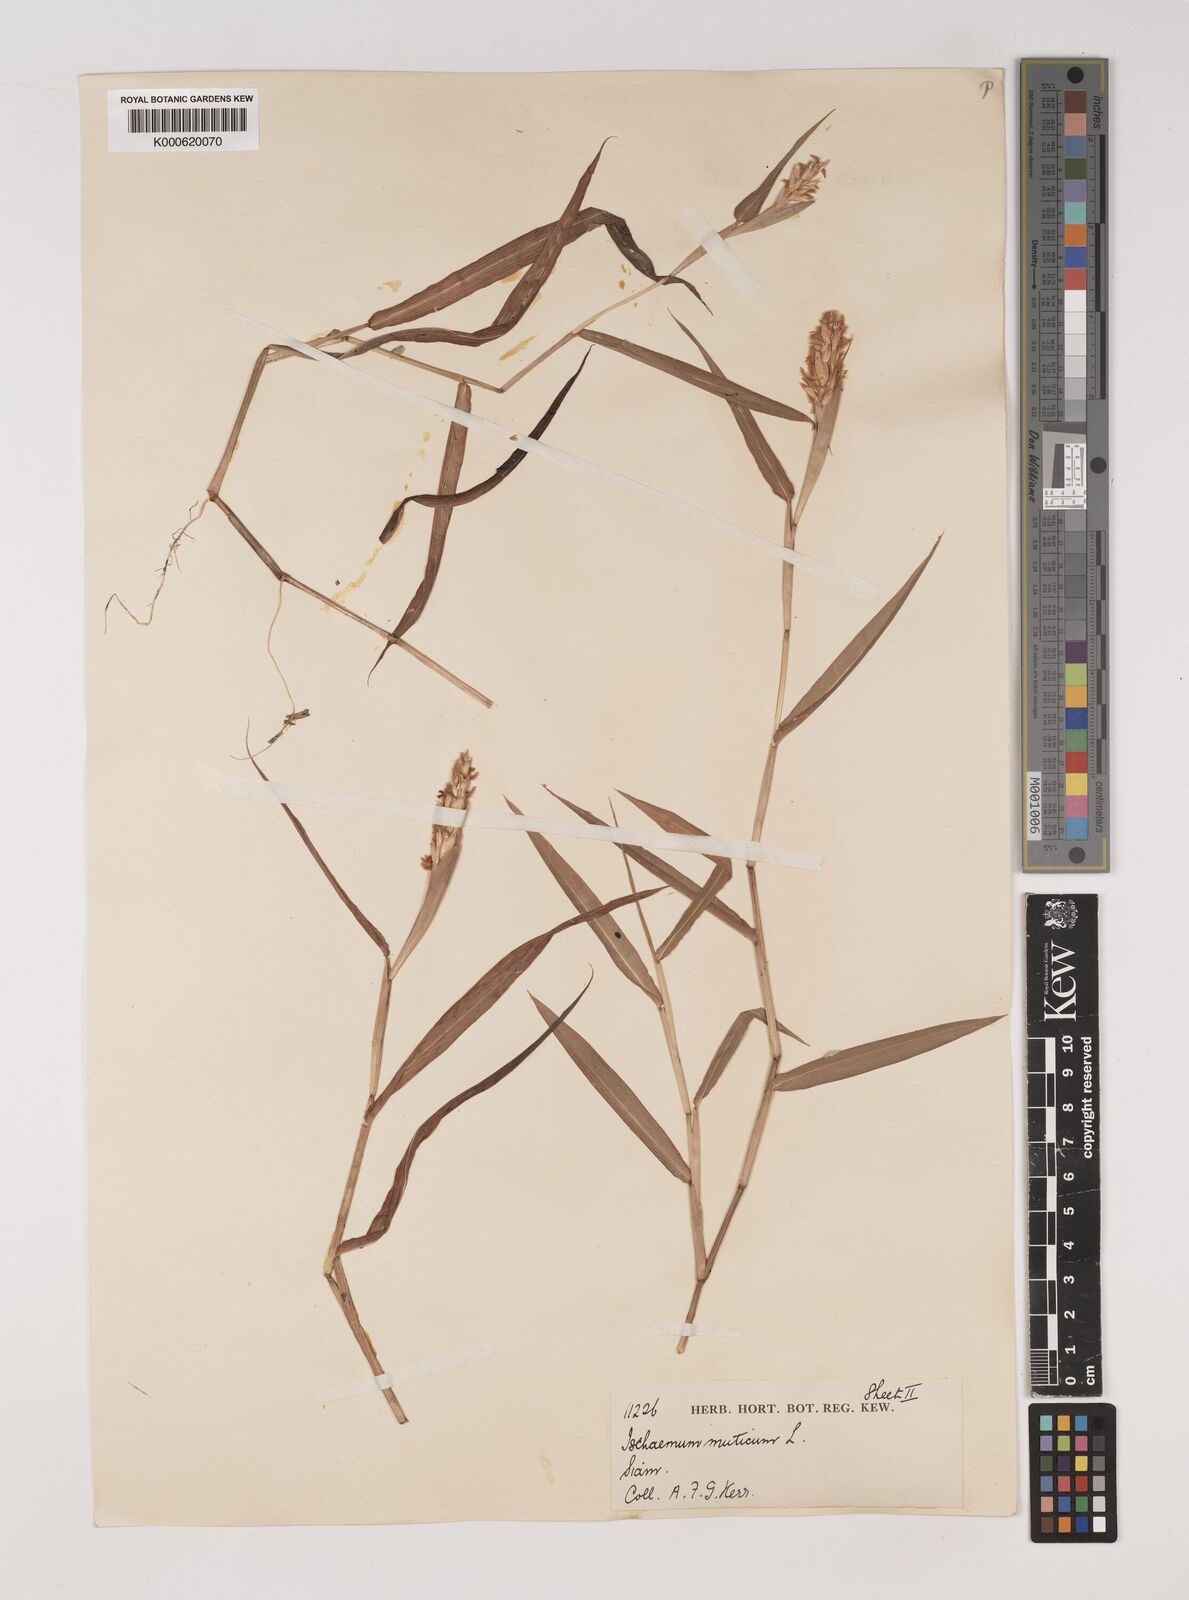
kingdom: Plantae
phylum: Tracheophyta
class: Liliopsida
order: Poales
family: Poaceae
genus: Ischaemum
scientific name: Ischaemum muticum
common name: Drought grass
